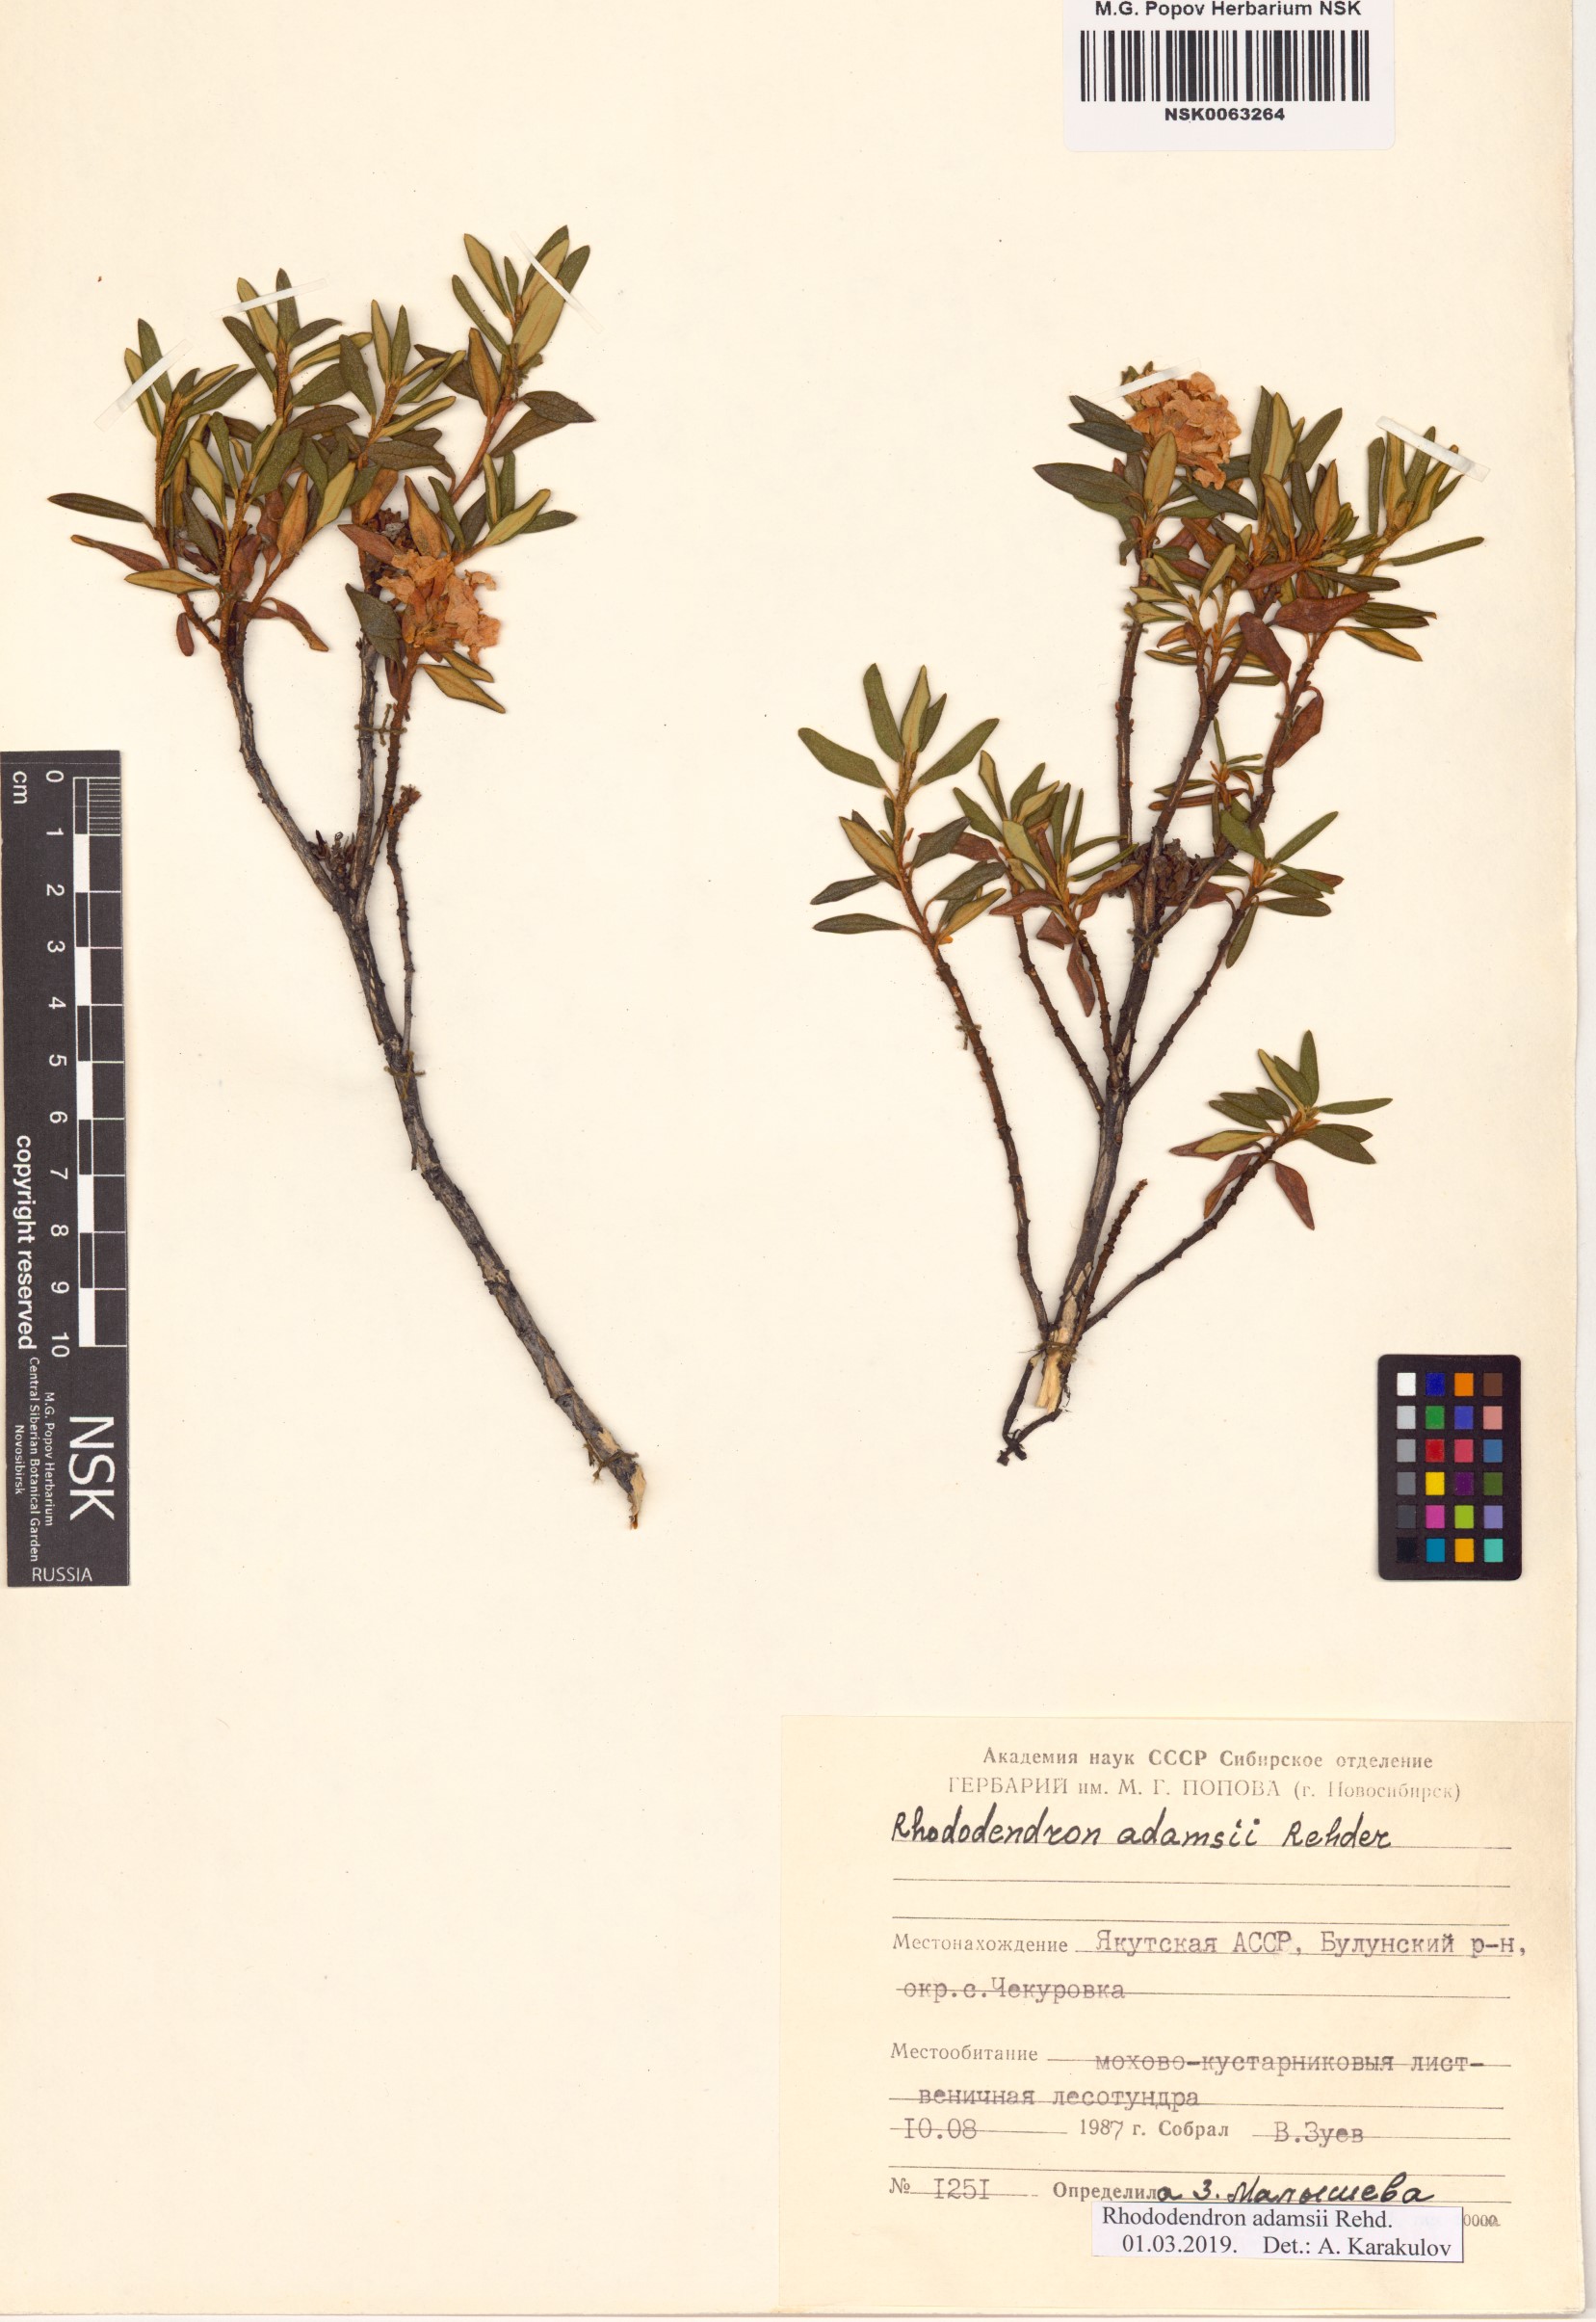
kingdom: Plantae
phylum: Tracheophyta
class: Magnoliopsida
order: Ericales
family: Ericaceae
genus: Rhododendron
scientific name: Rhododendron adamsii
